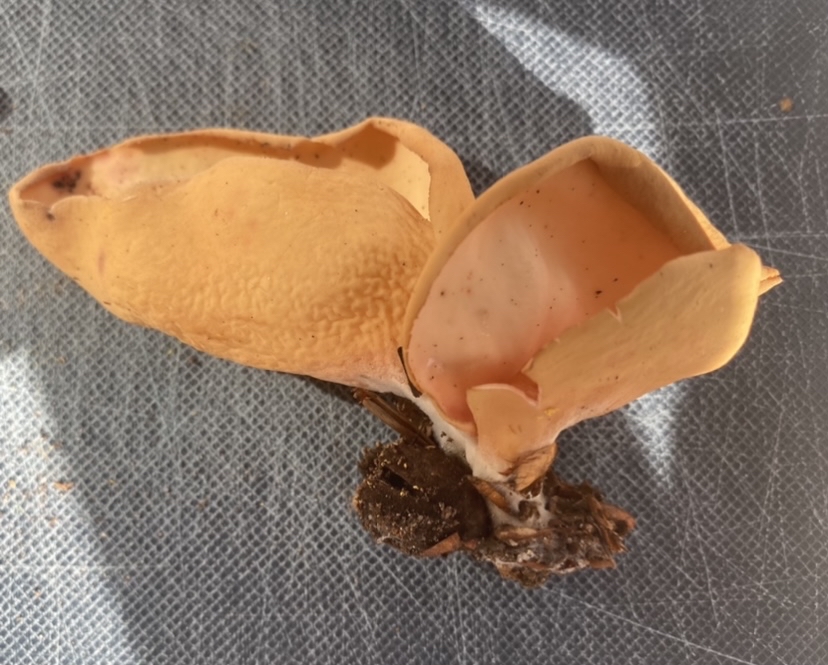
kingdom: Fungi
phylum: Ascomycota
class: Pezizomycetes
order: Pezizales
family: Otideaceae
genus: Otidea
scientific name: Otidea onotica
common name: æsel-ørebæger
